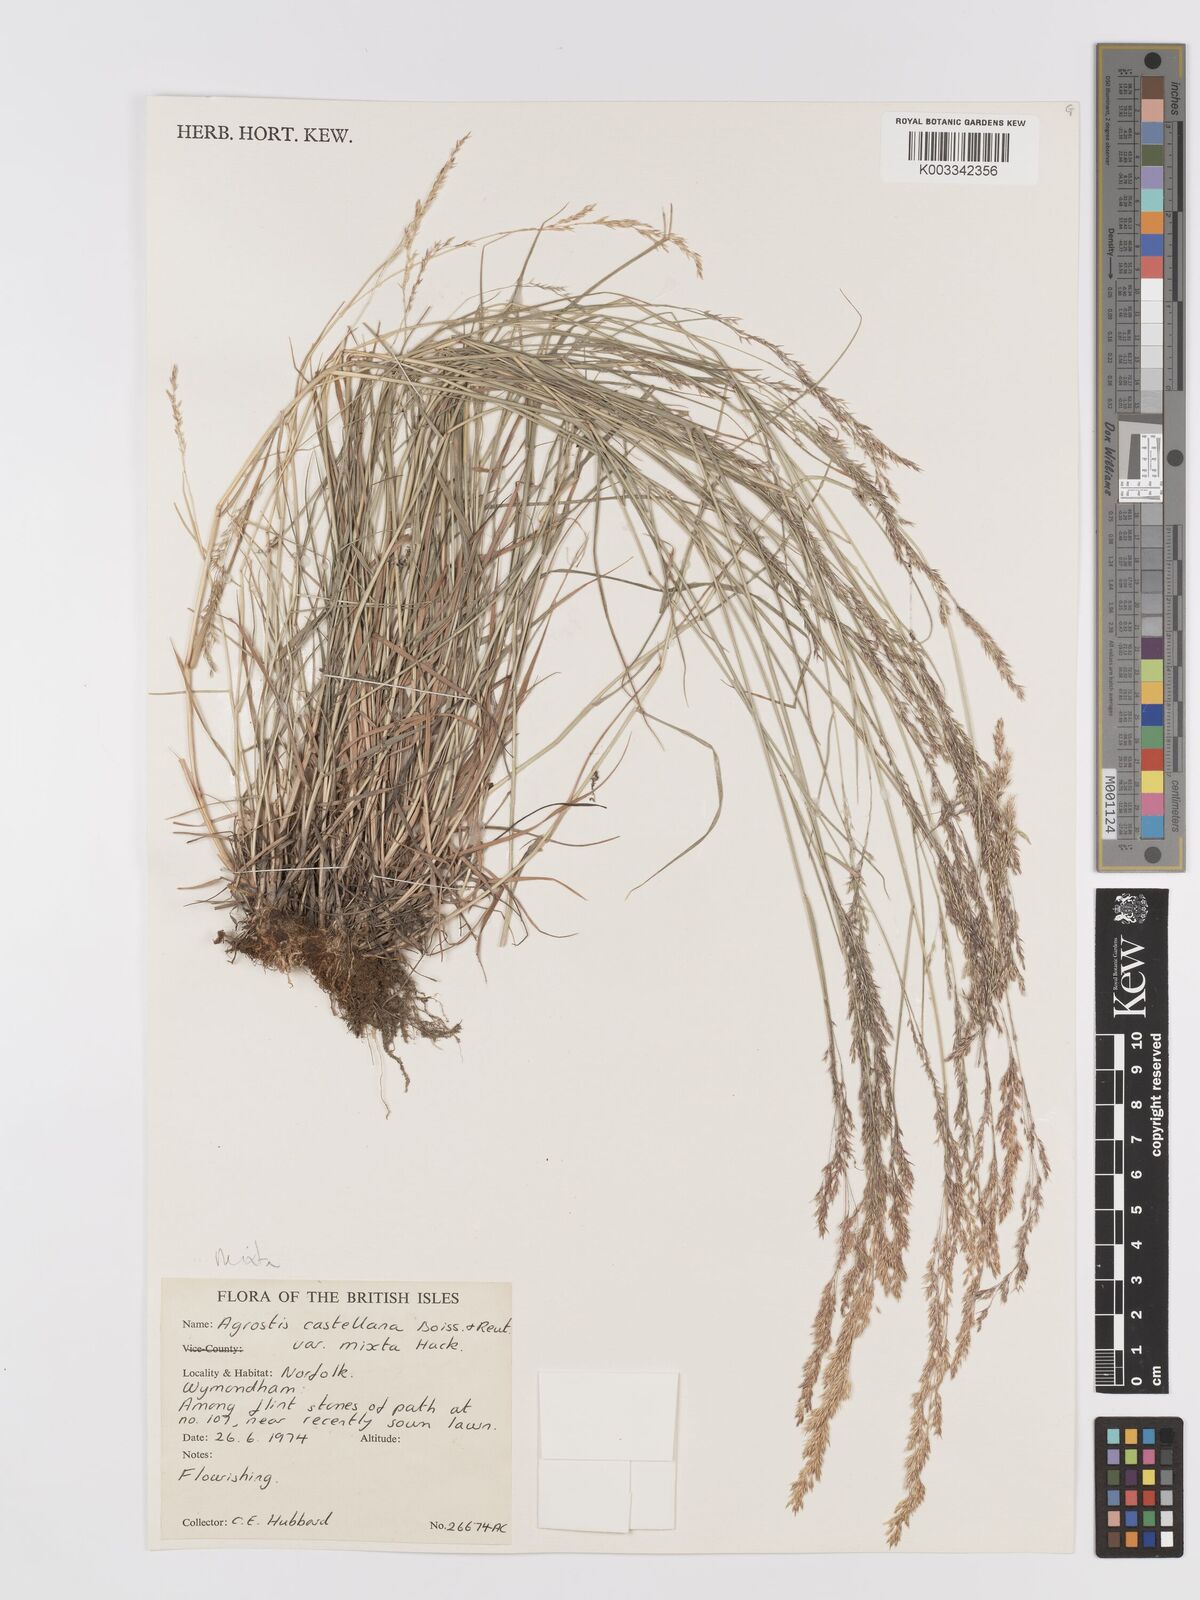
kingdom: Plantae
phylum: Tracheophyta
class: Liliopsida
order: Poales
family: Poaceae
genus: Agrostis
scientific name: Agrostis castellana
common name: Highland bent
